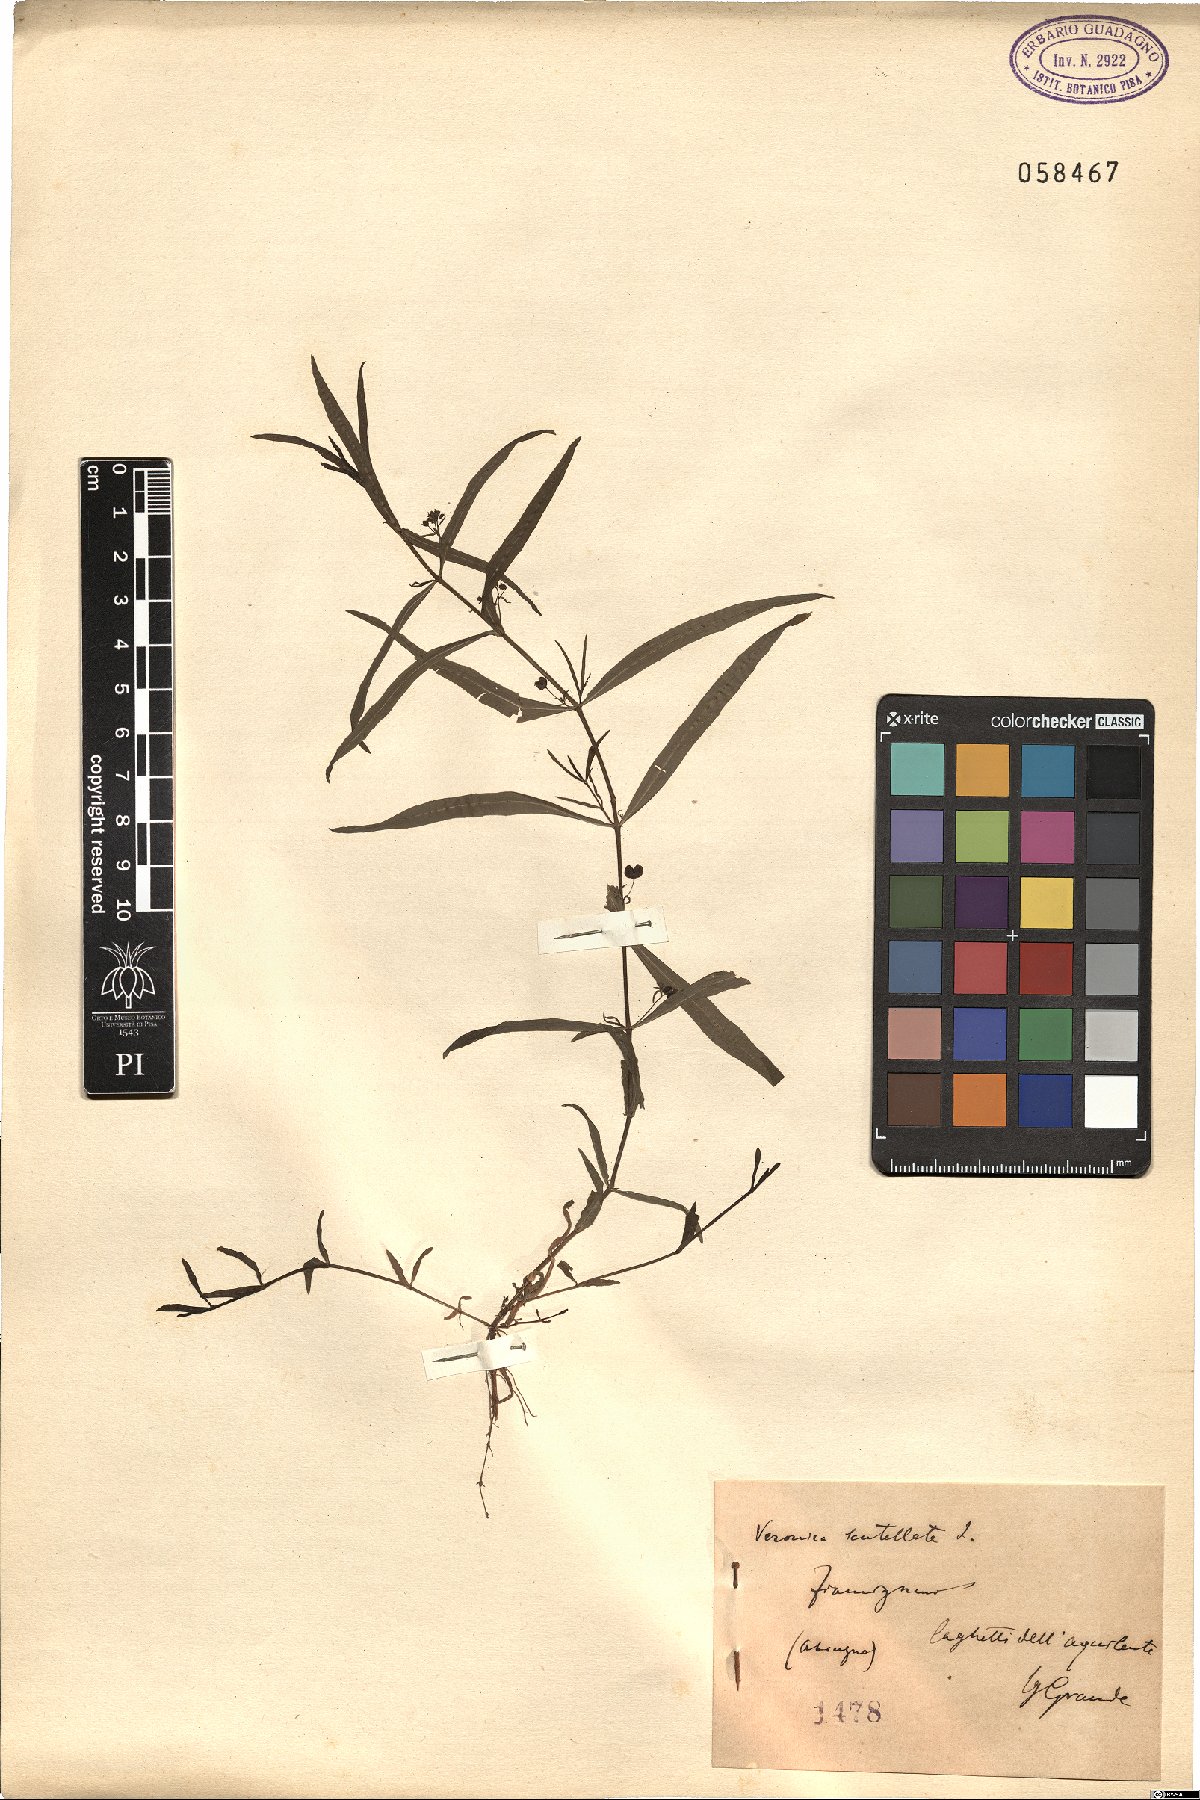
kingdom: Plantae
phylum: Tracheophyta
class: Magnoliopsida
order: Lamiales
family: Plantaginaceae
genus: Veronica
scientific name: Veronica scutellata
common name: Marsh speedwell
